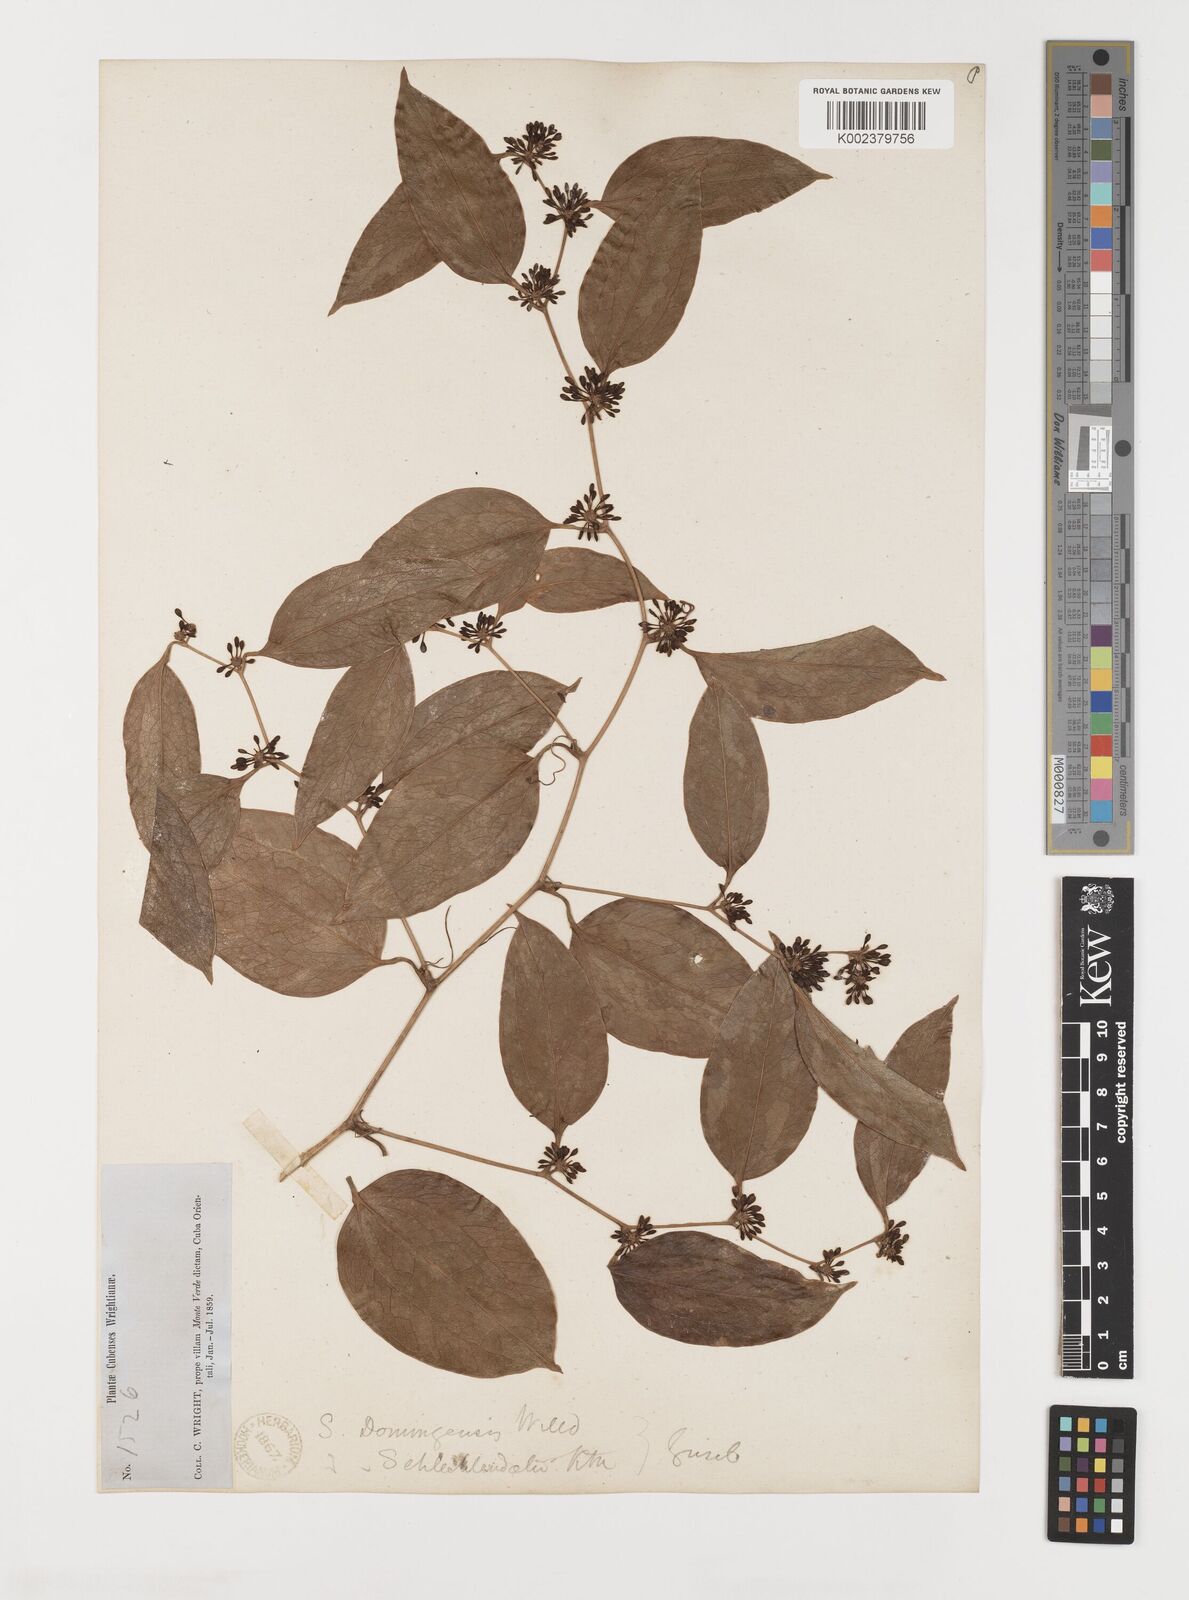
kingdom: Plantae
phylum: Tracheophyta
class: Liliopsida
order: Liliales
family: Smilacaceae
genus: Smilax
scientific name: Smilax domingensis
